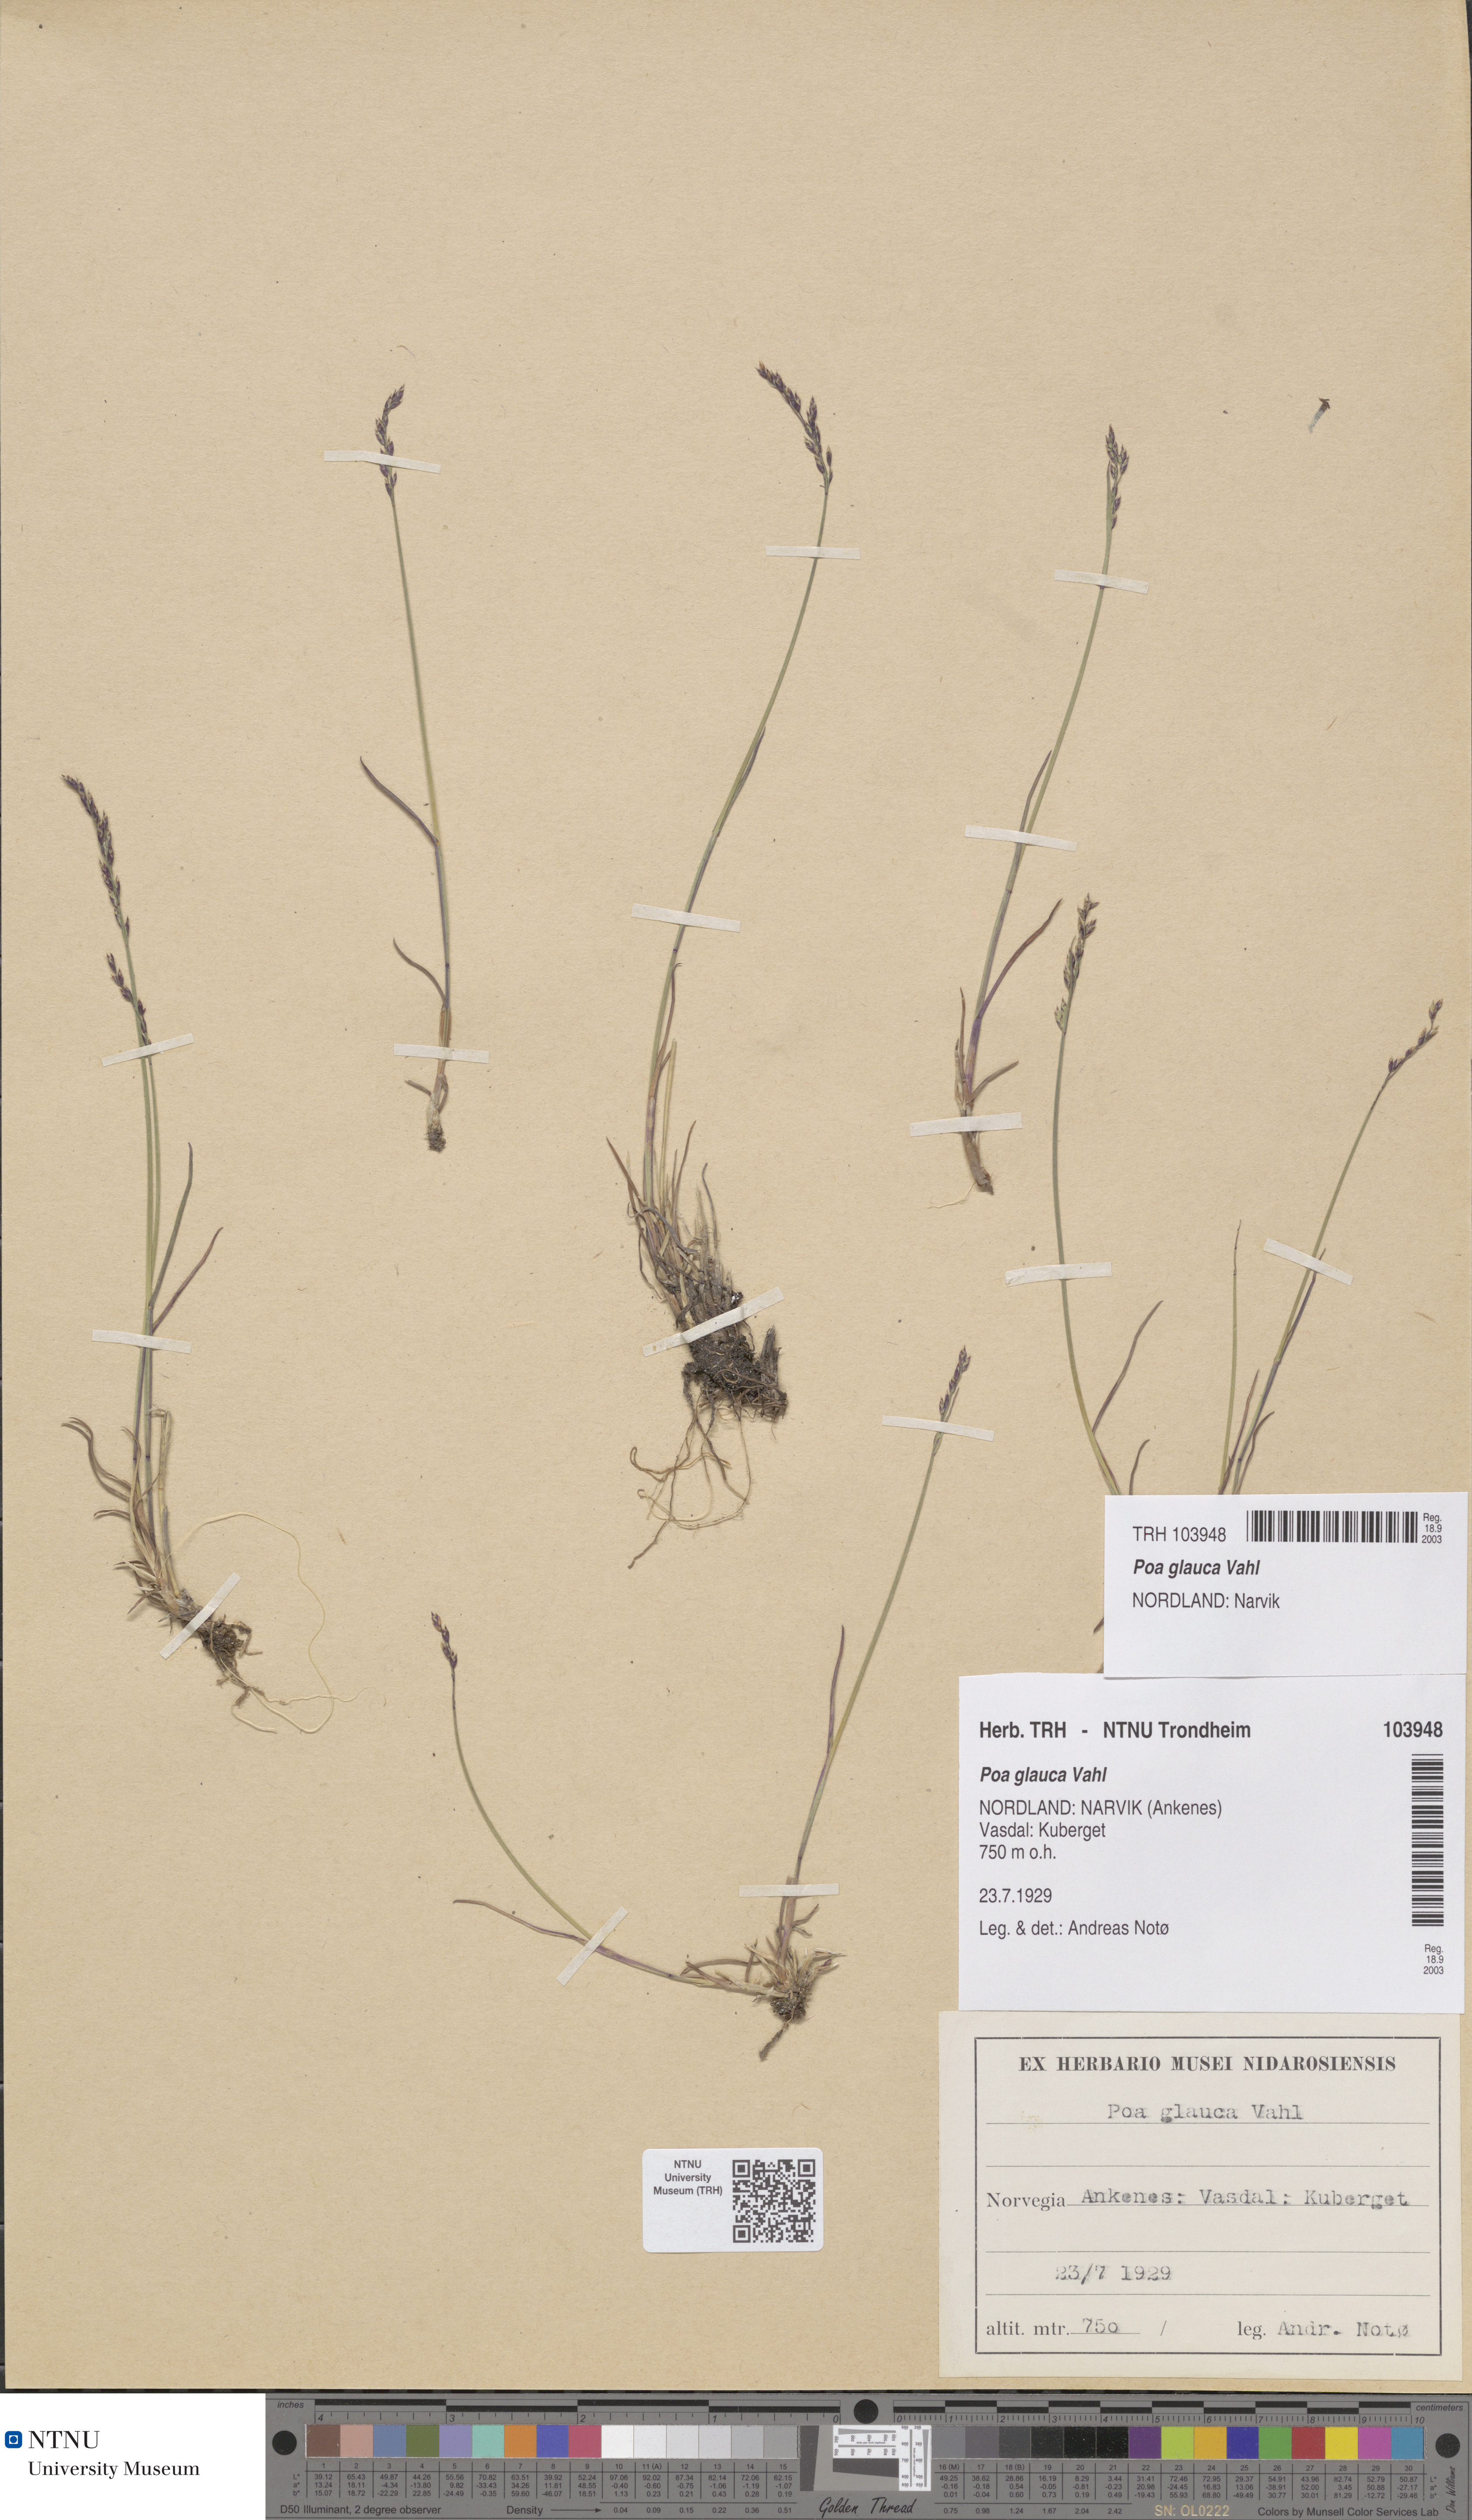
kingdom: Plantae
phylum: Tracheophyta
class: Liliopsida
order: Poales
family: Poaceae
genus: Poa
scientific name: Poa glauca
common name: Glaucous bluegrass
